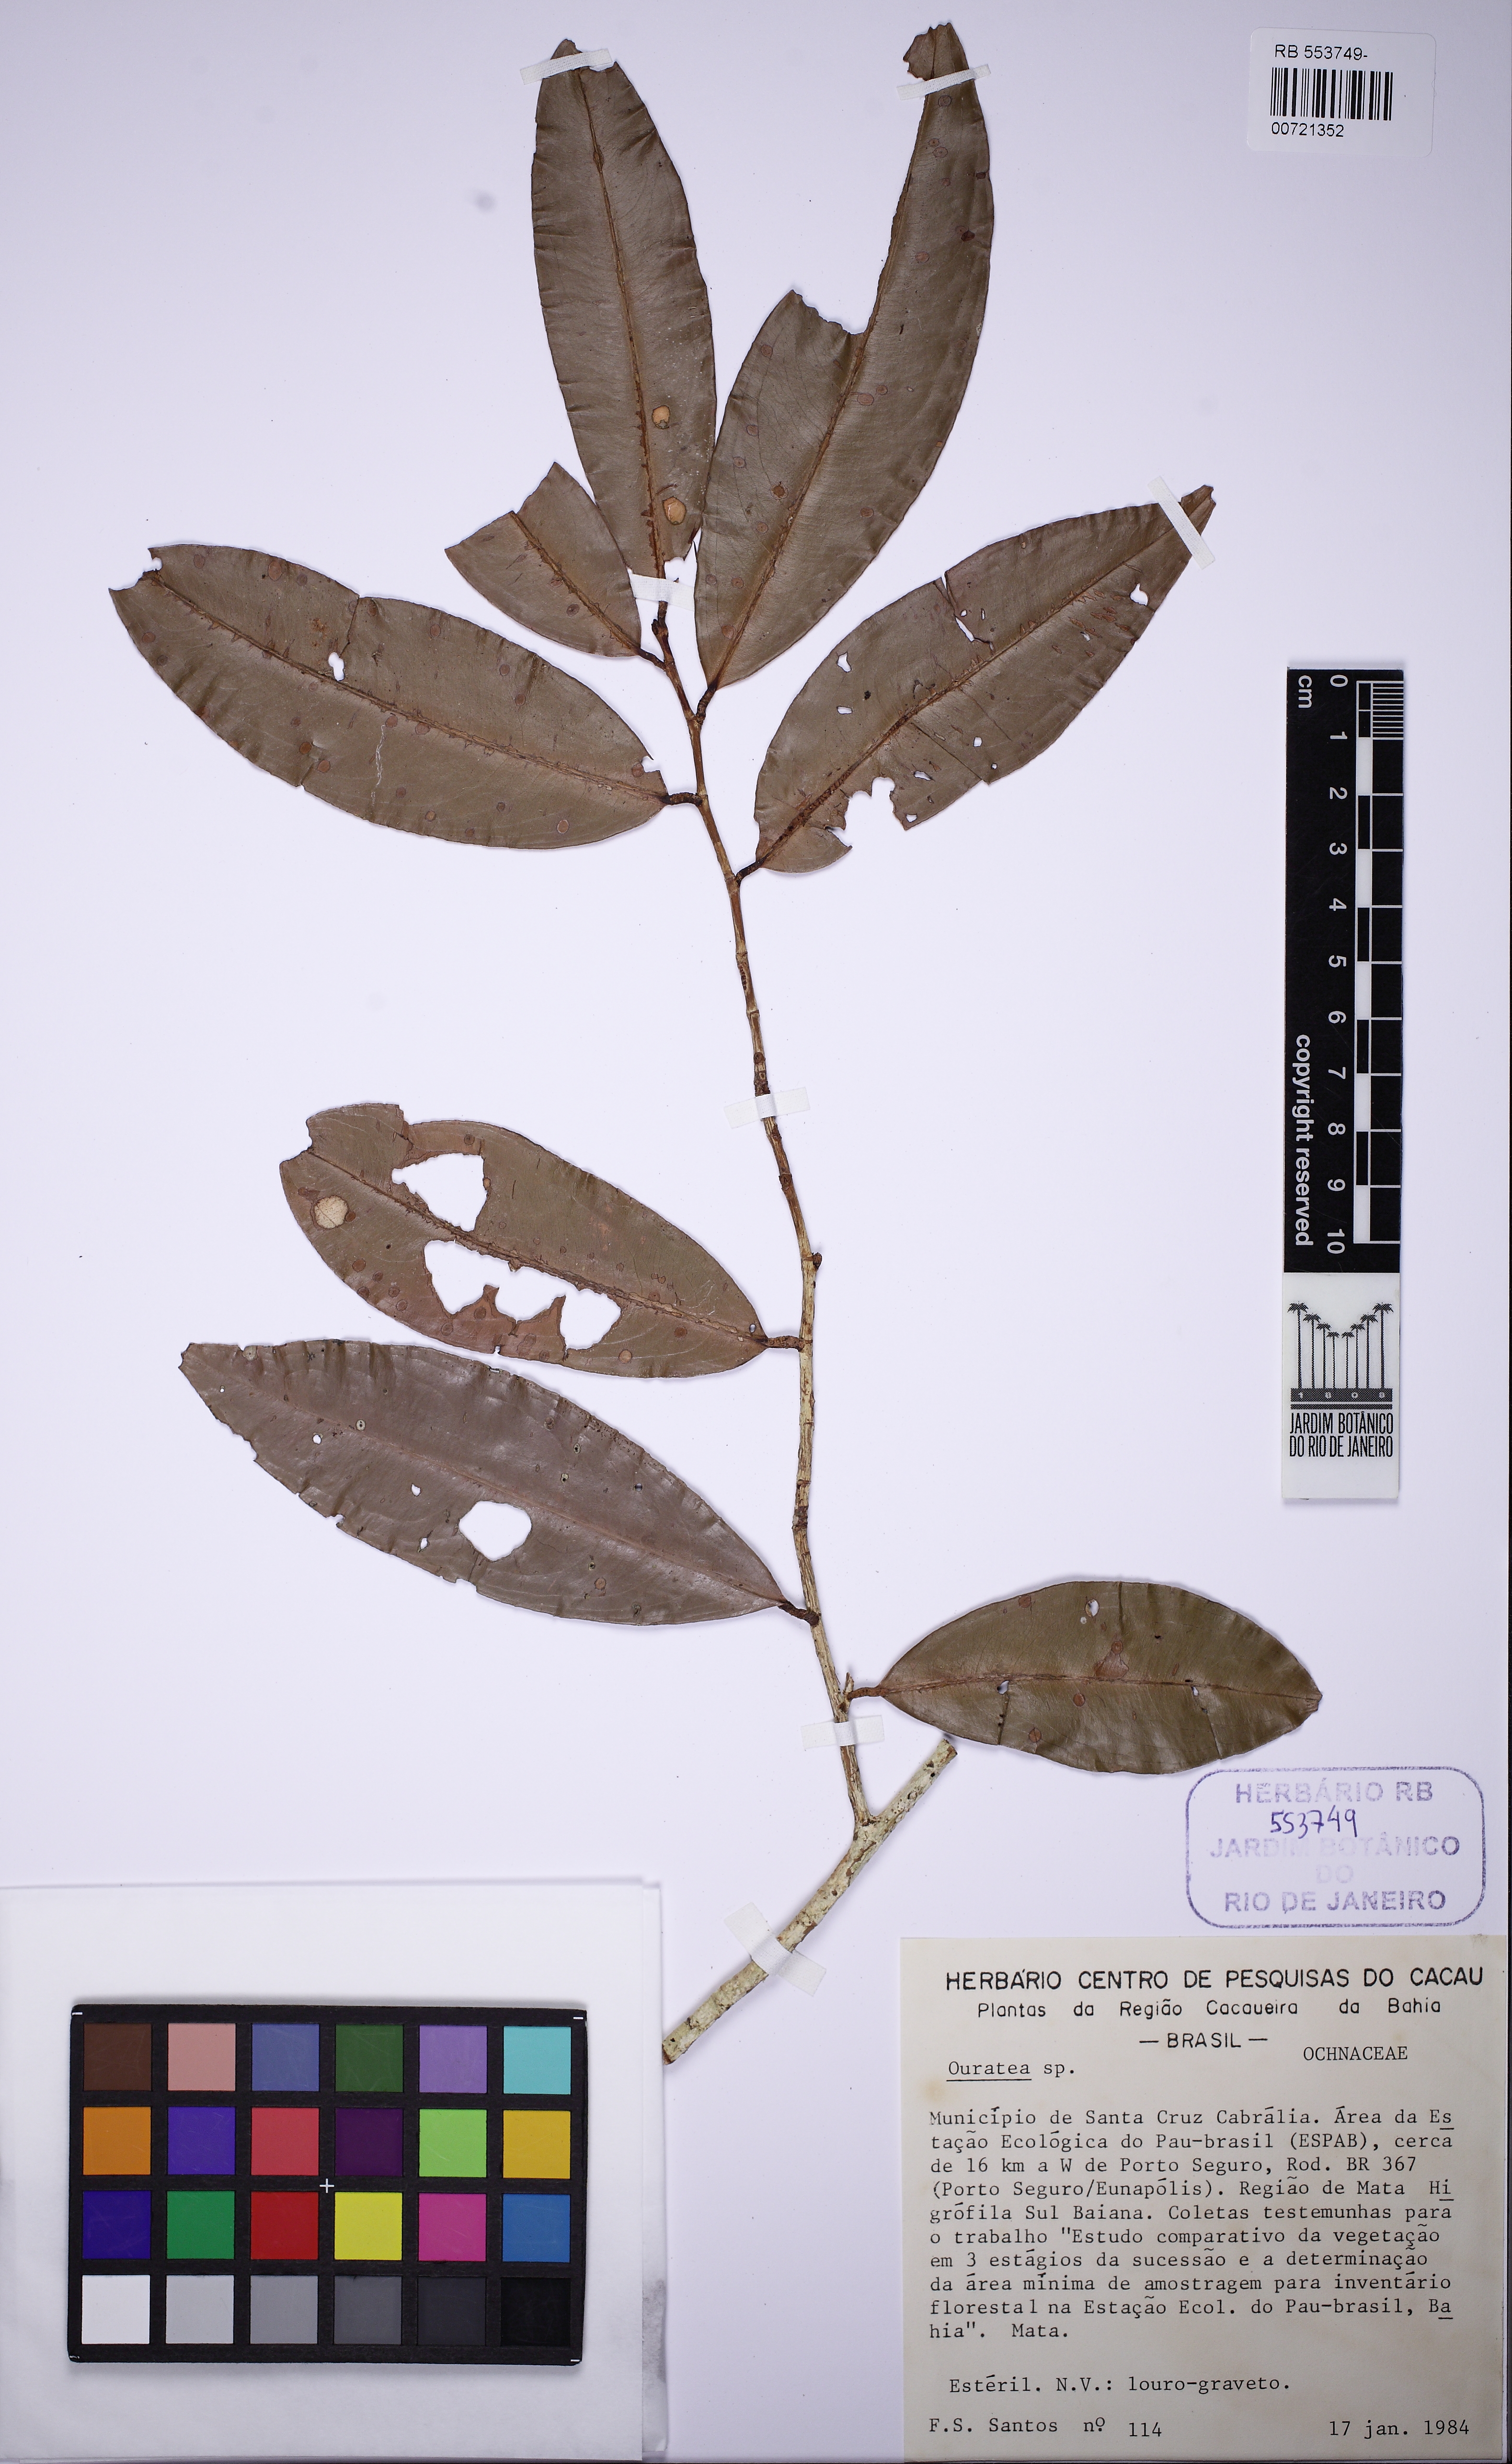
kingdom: Plantae
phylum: Tracheophyta
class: Magnoliopsida
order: Malpighiales
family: Ochnaceae
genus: Ouratea
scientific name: Ouratea
